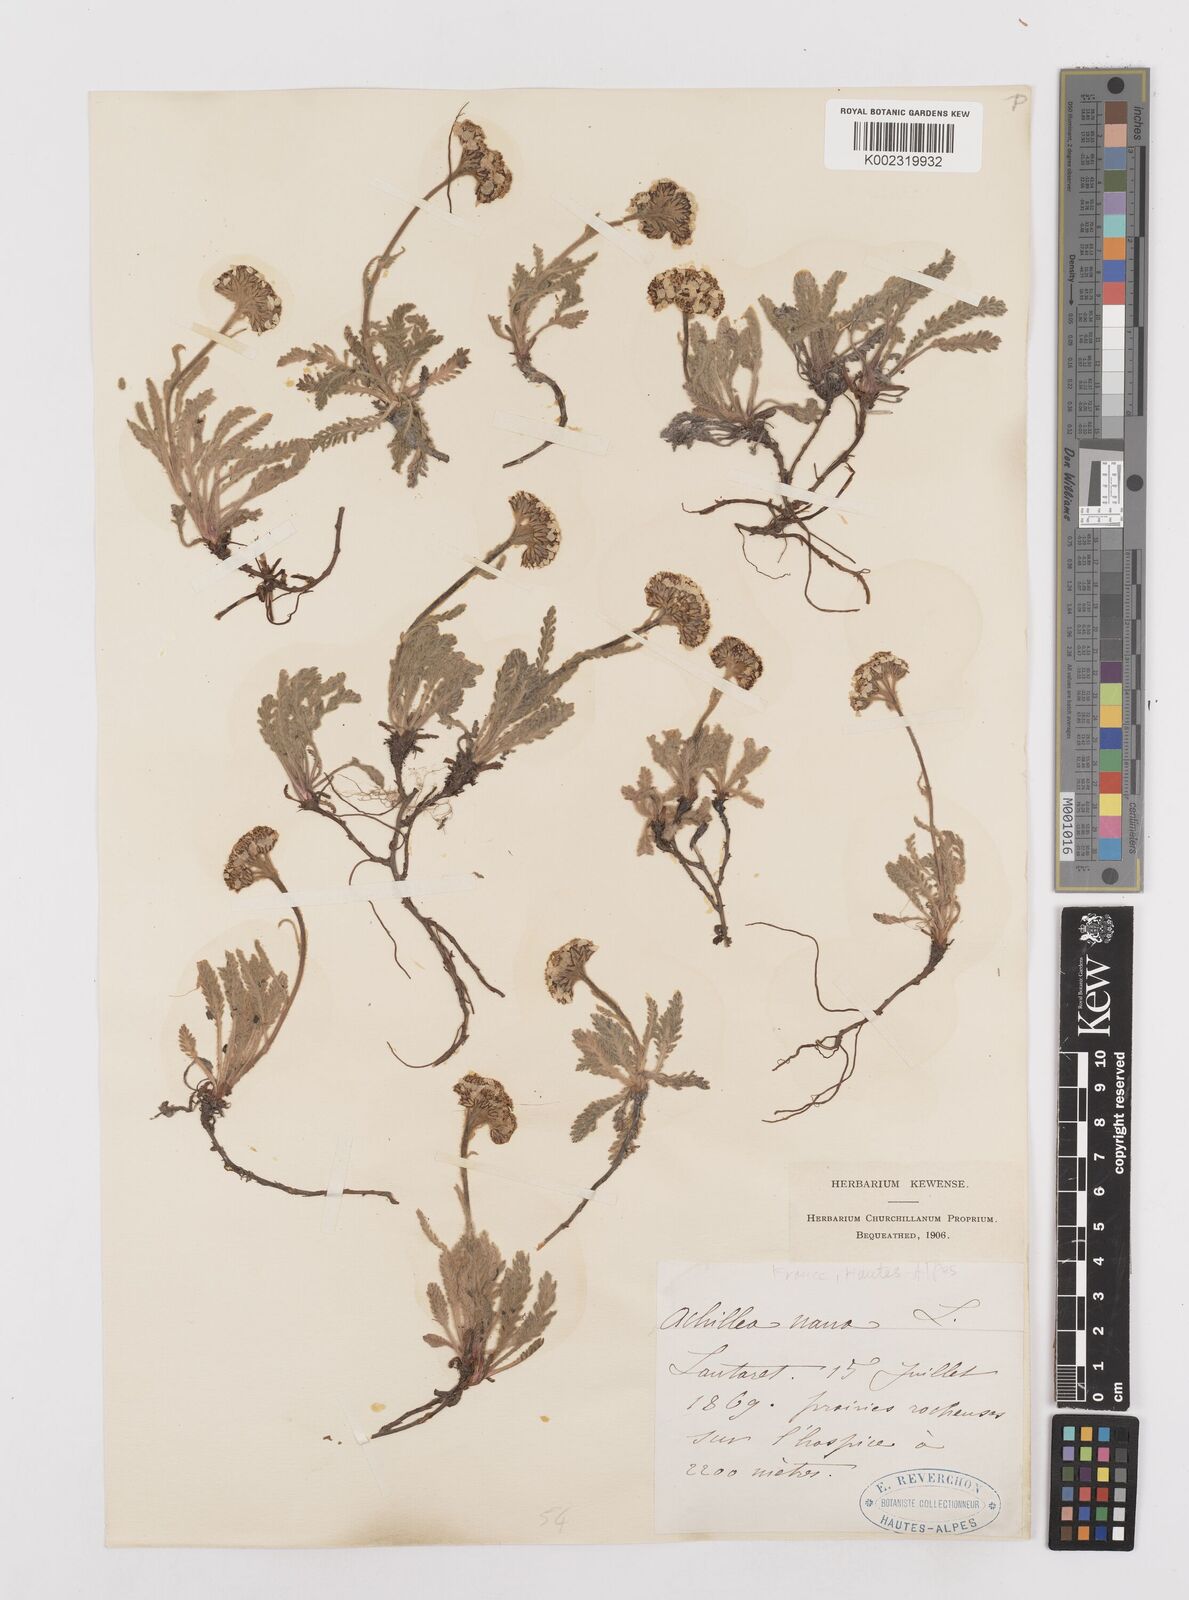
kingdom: Plantae
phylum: Tracheophyta
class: Magnoliopsida
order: Asterales
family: Asteraceae
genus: Achillea
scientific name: Achillea
